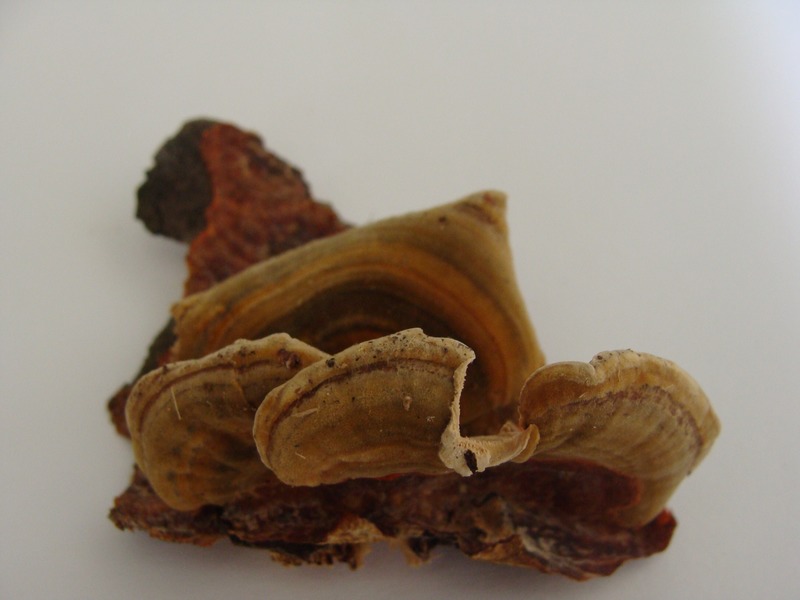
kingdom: Plantae
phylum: Tracheophyta
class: Magnoliopsida
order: Fagales
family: Betulaceae
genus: Alnus
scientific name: Alnus
